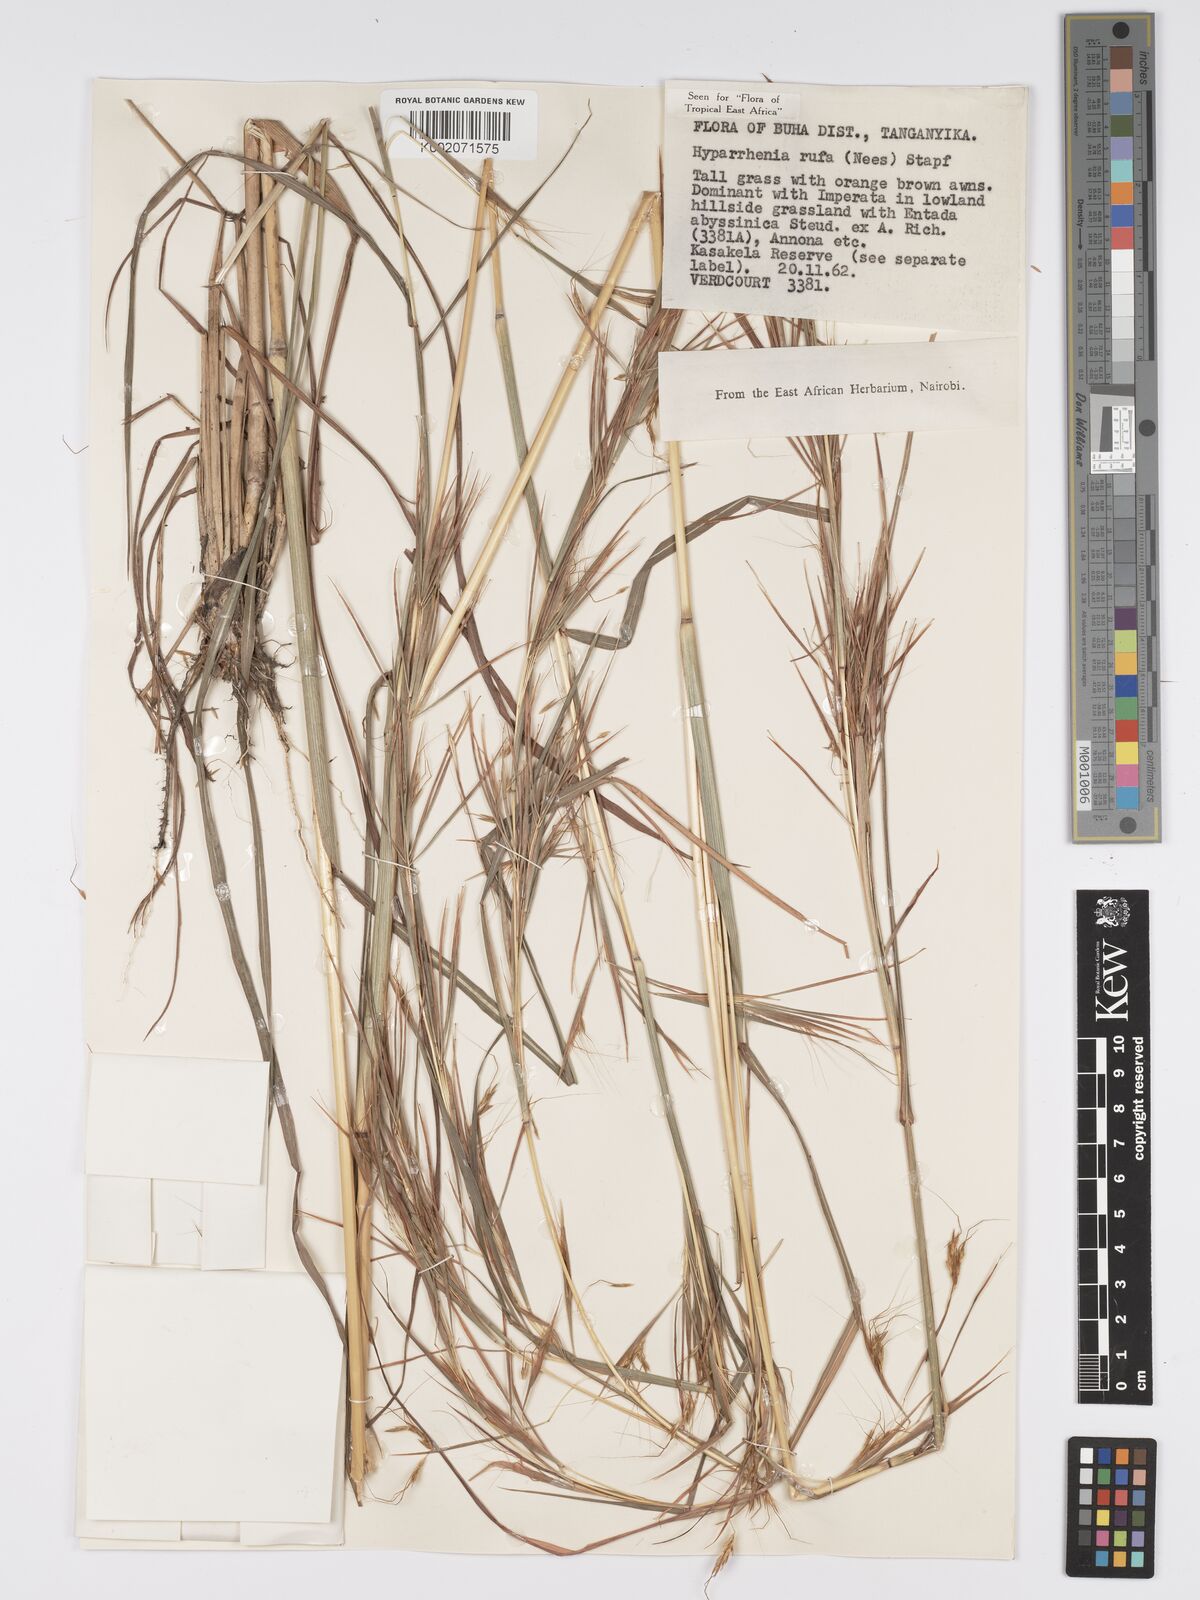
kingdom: Plantae
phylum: Tracheophyta
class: Liliopsida
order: Poales
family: Poaceae
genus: Hyparrhenia
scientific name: Hyparrhenia rufa
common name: Jaraguagrass
